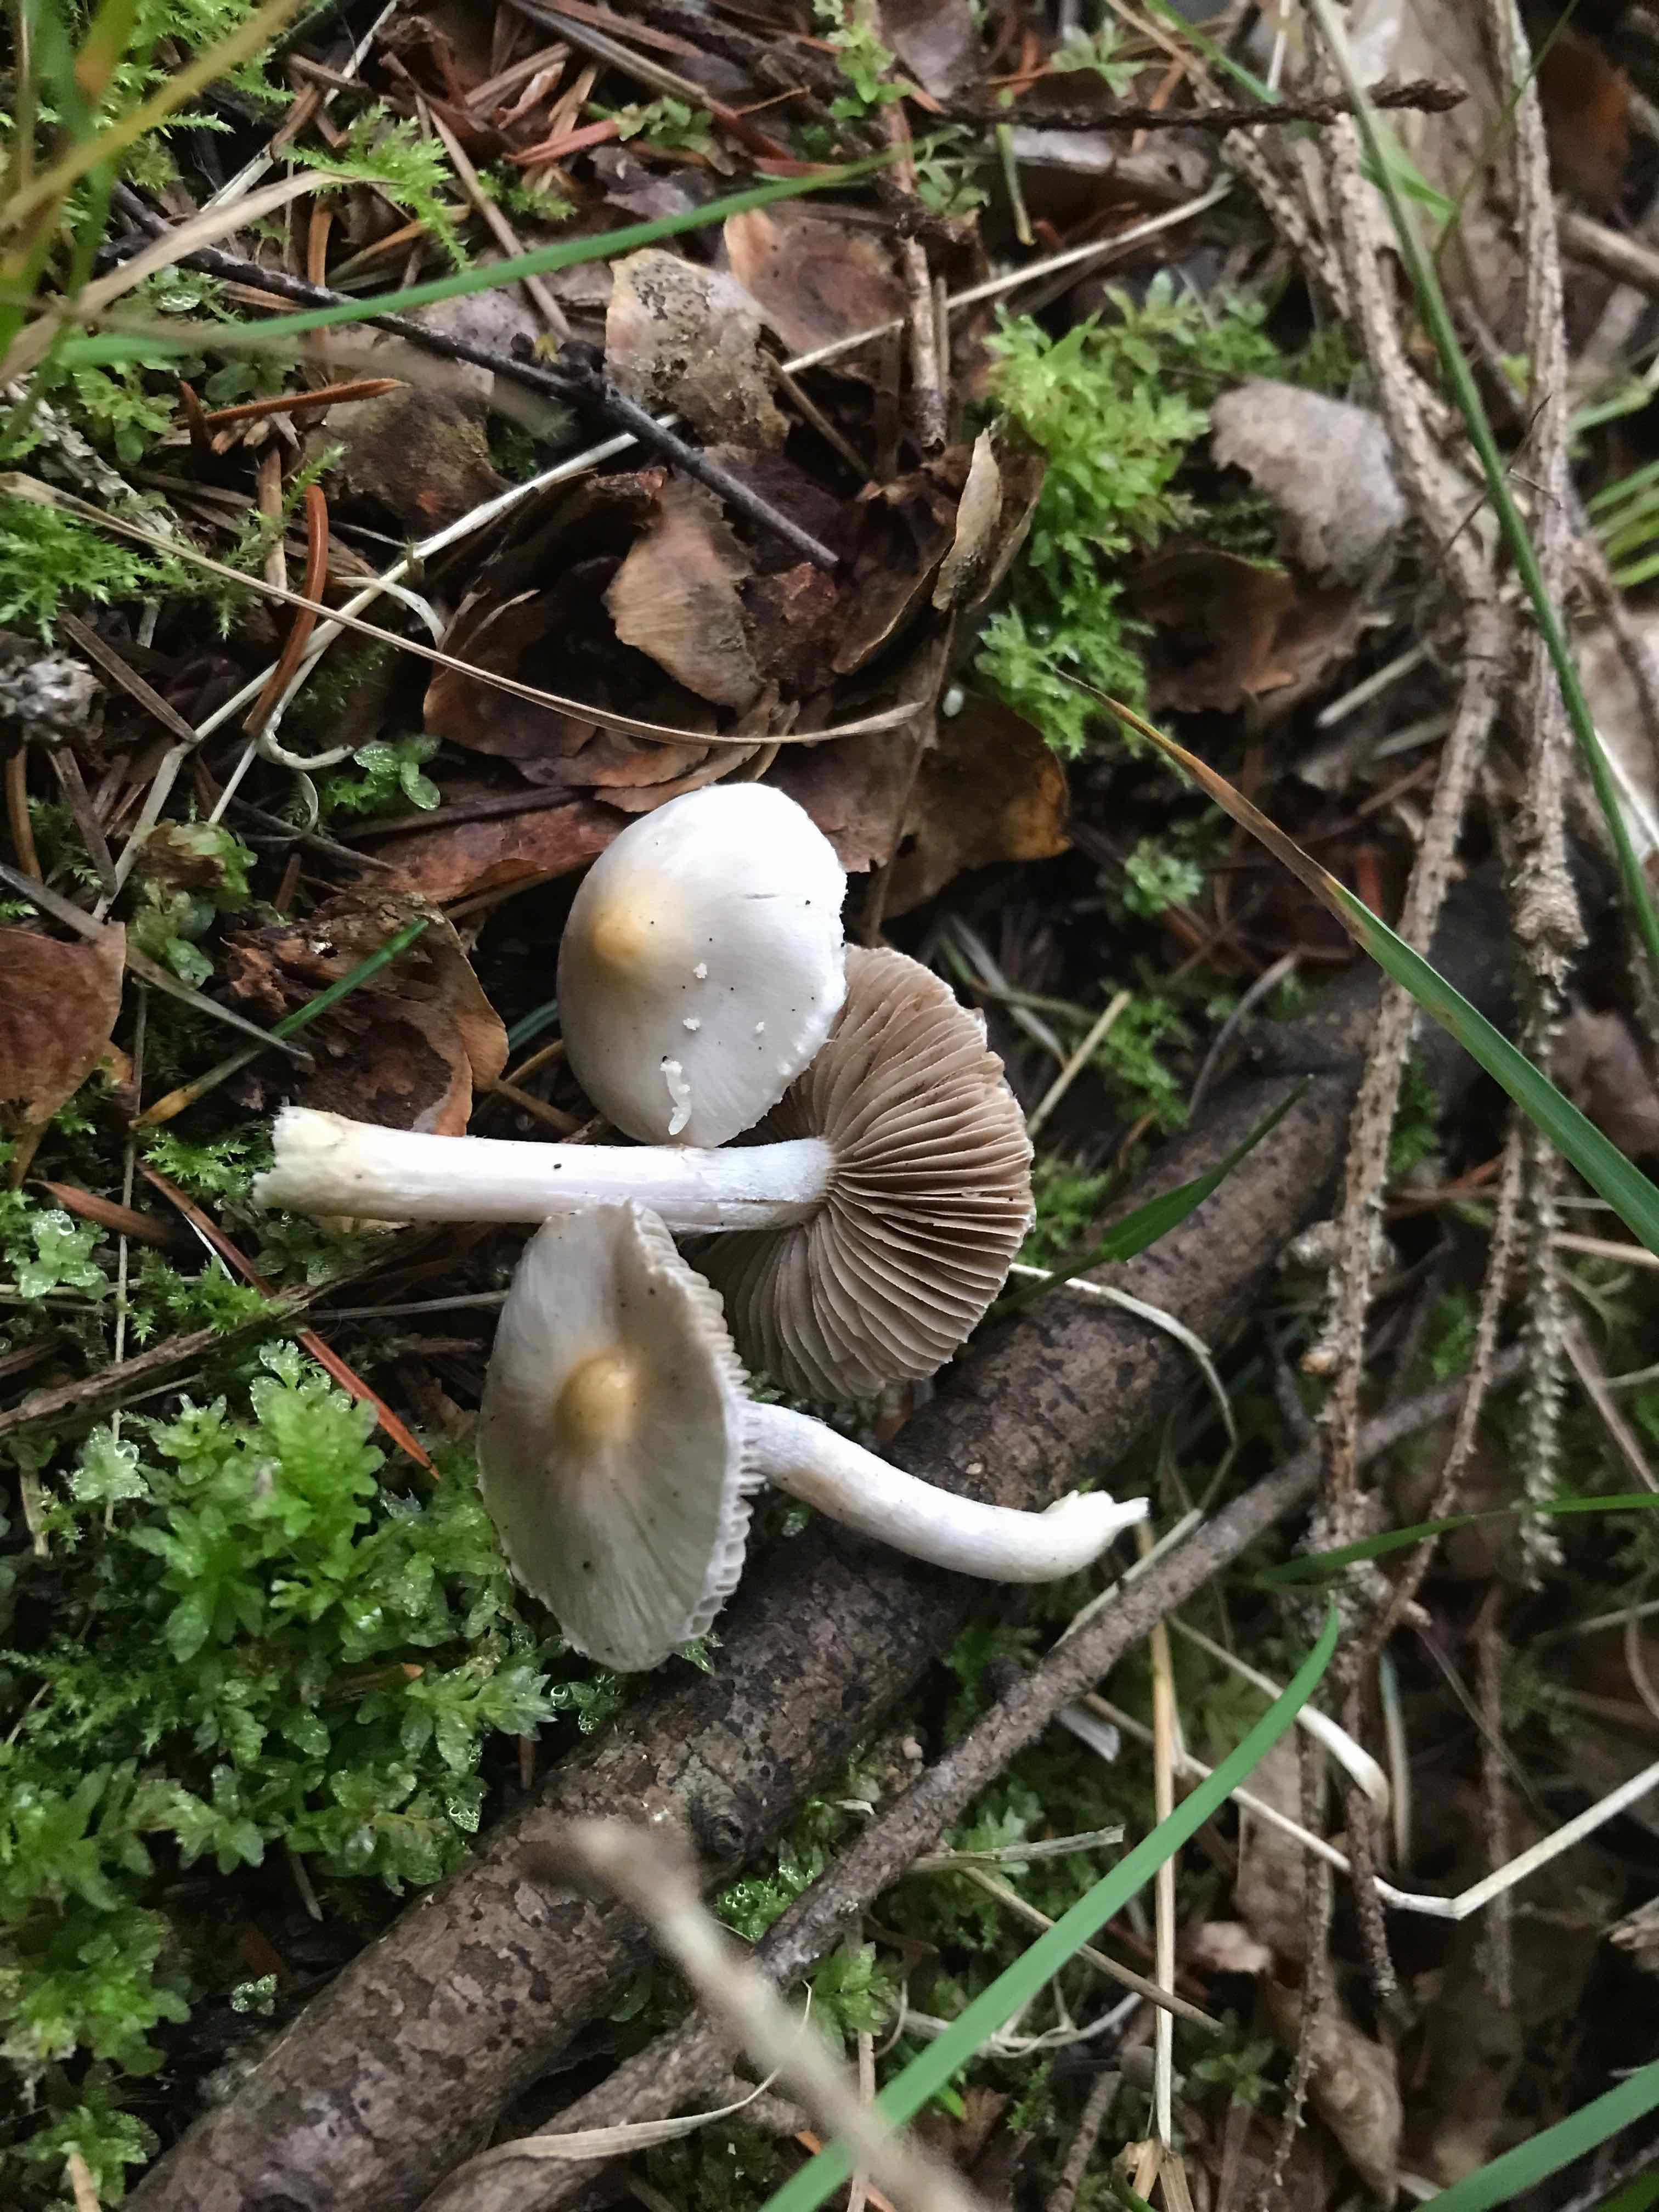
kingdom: Fungi
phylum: Basidiomycota
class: Agaricomycetes
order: Agaricales
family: Inocybaceae
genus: Inocybe
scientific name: Inocybe
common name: almindelig trævlhat
